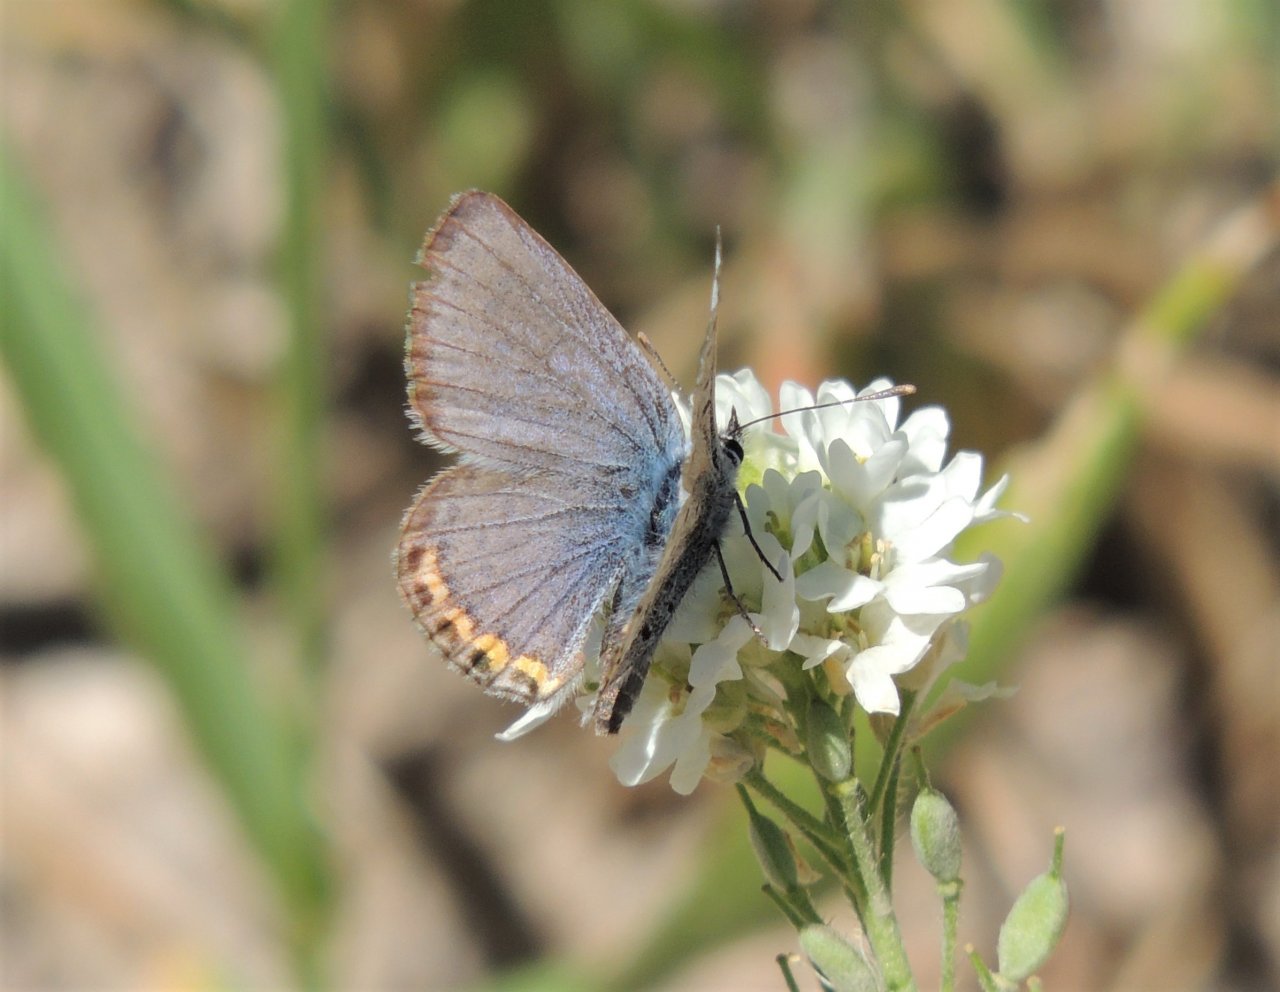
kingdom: Animalia
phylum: Arthropoda
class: Insecta
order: Lepidoptera
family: Lycaenidae
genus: Plebejus
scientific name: Plebejus lupini
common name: Lupine Blue
